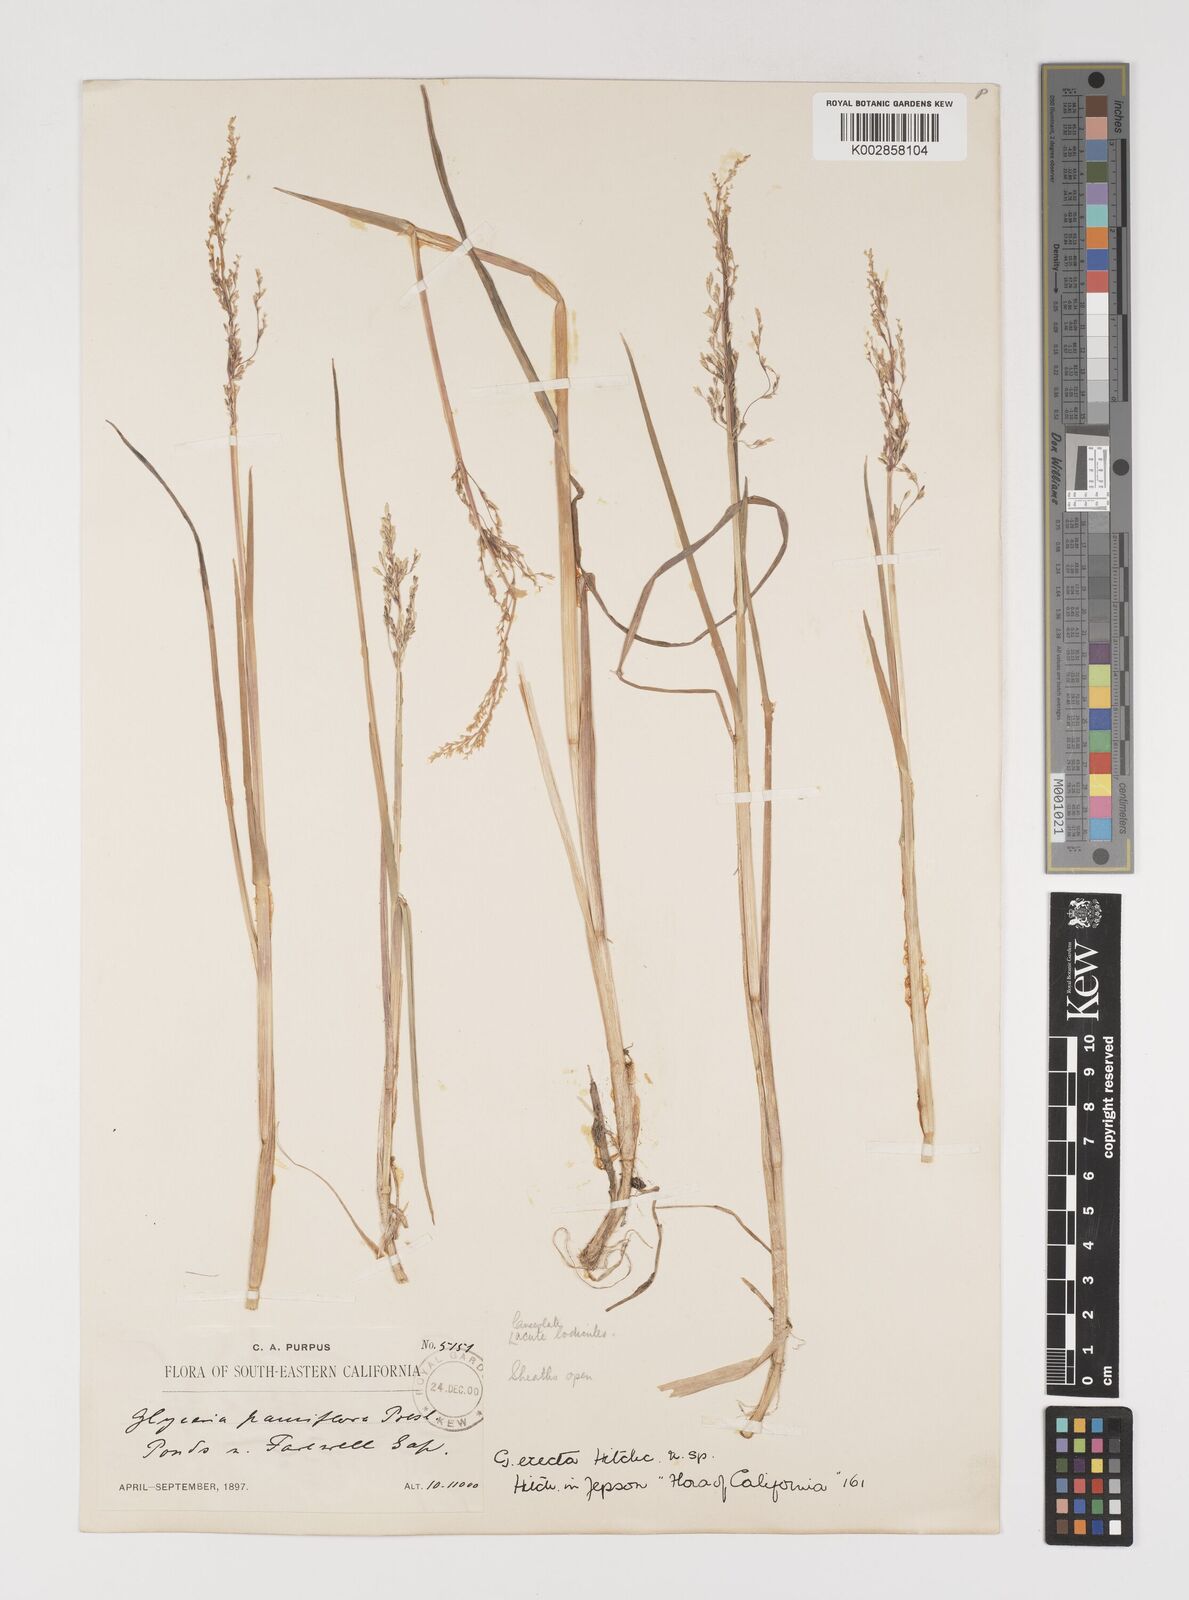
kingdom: Plantae
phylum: Tracheophyta
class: Liliopsida
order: Poales
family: Poaceae
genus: Torreyochloa
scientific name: Torreyochloa erecta
